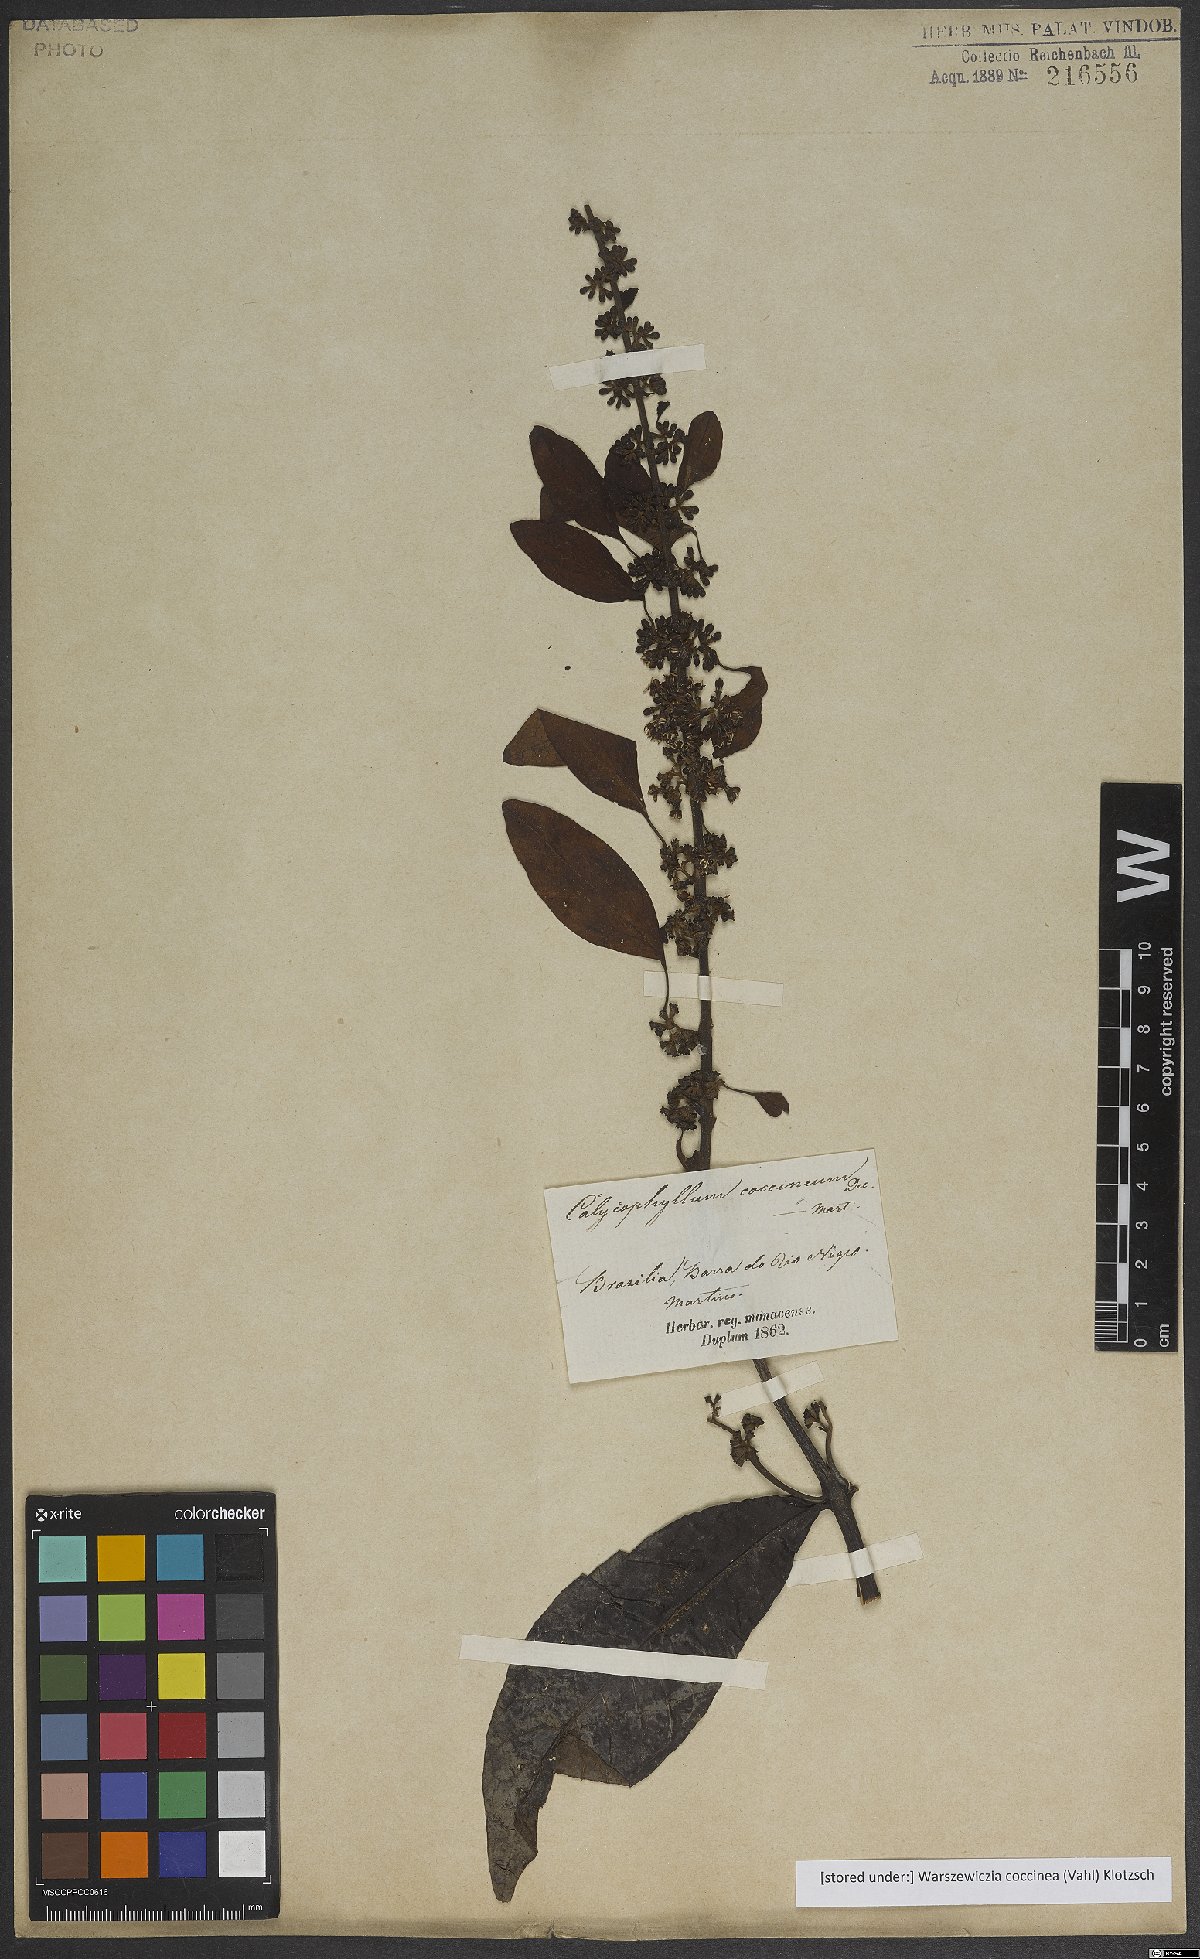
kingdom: Plantae
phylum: Tracheophyta
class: Magnoliopsida
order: Gentianales
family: Rubiaceae
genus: Warszewiczia
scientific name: Warszewiczia coccinea
